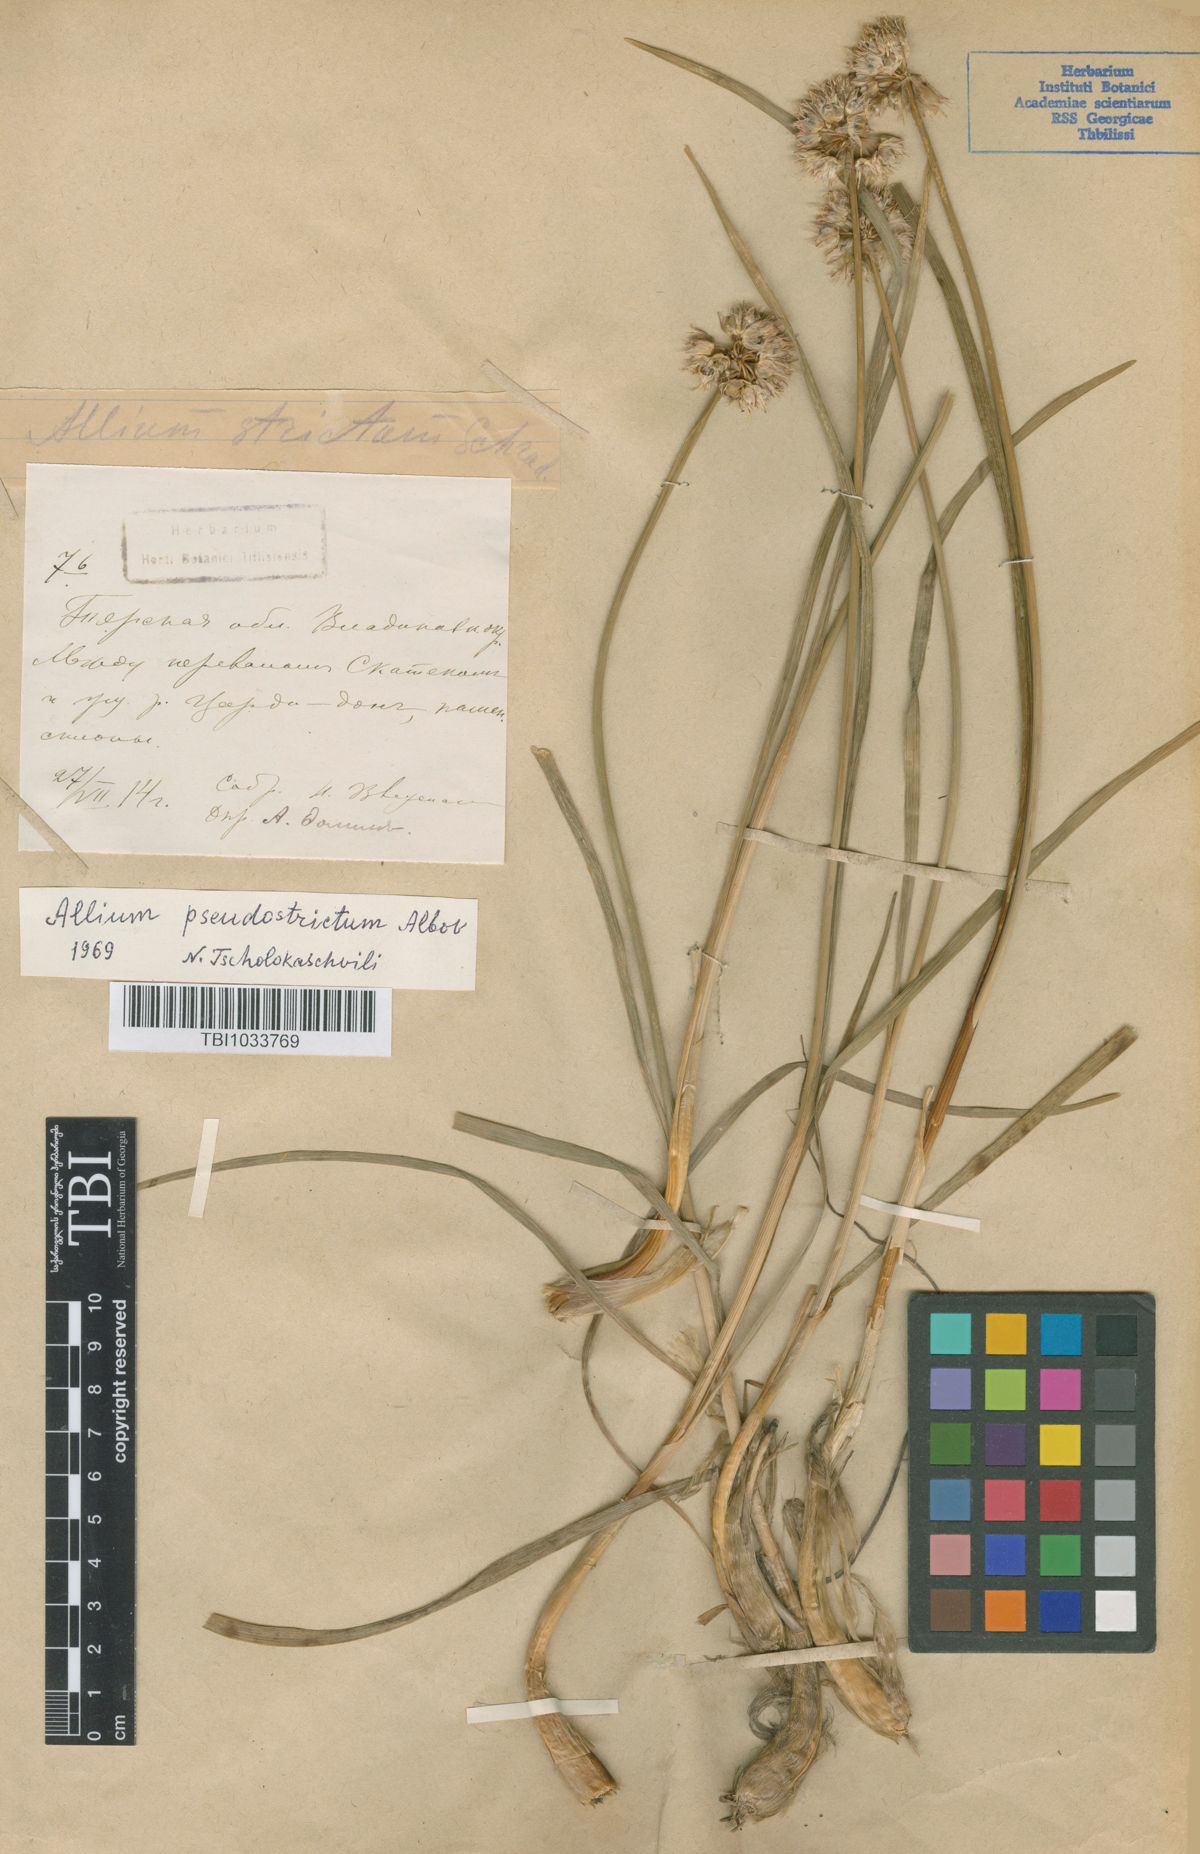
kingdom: Plantae
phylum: Tracheophyta
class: Liliopsida
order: Asparagales
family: Amaryllidaceae
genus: Allium
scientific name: Allium pseudostrictum
